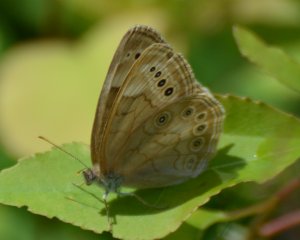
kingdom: Animalia
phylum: Arthropoda
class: Insecta
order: Lepidoptera
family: Nymphalidae
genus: Lethe
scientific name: Lethe eurydice
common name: Eyed Brown
